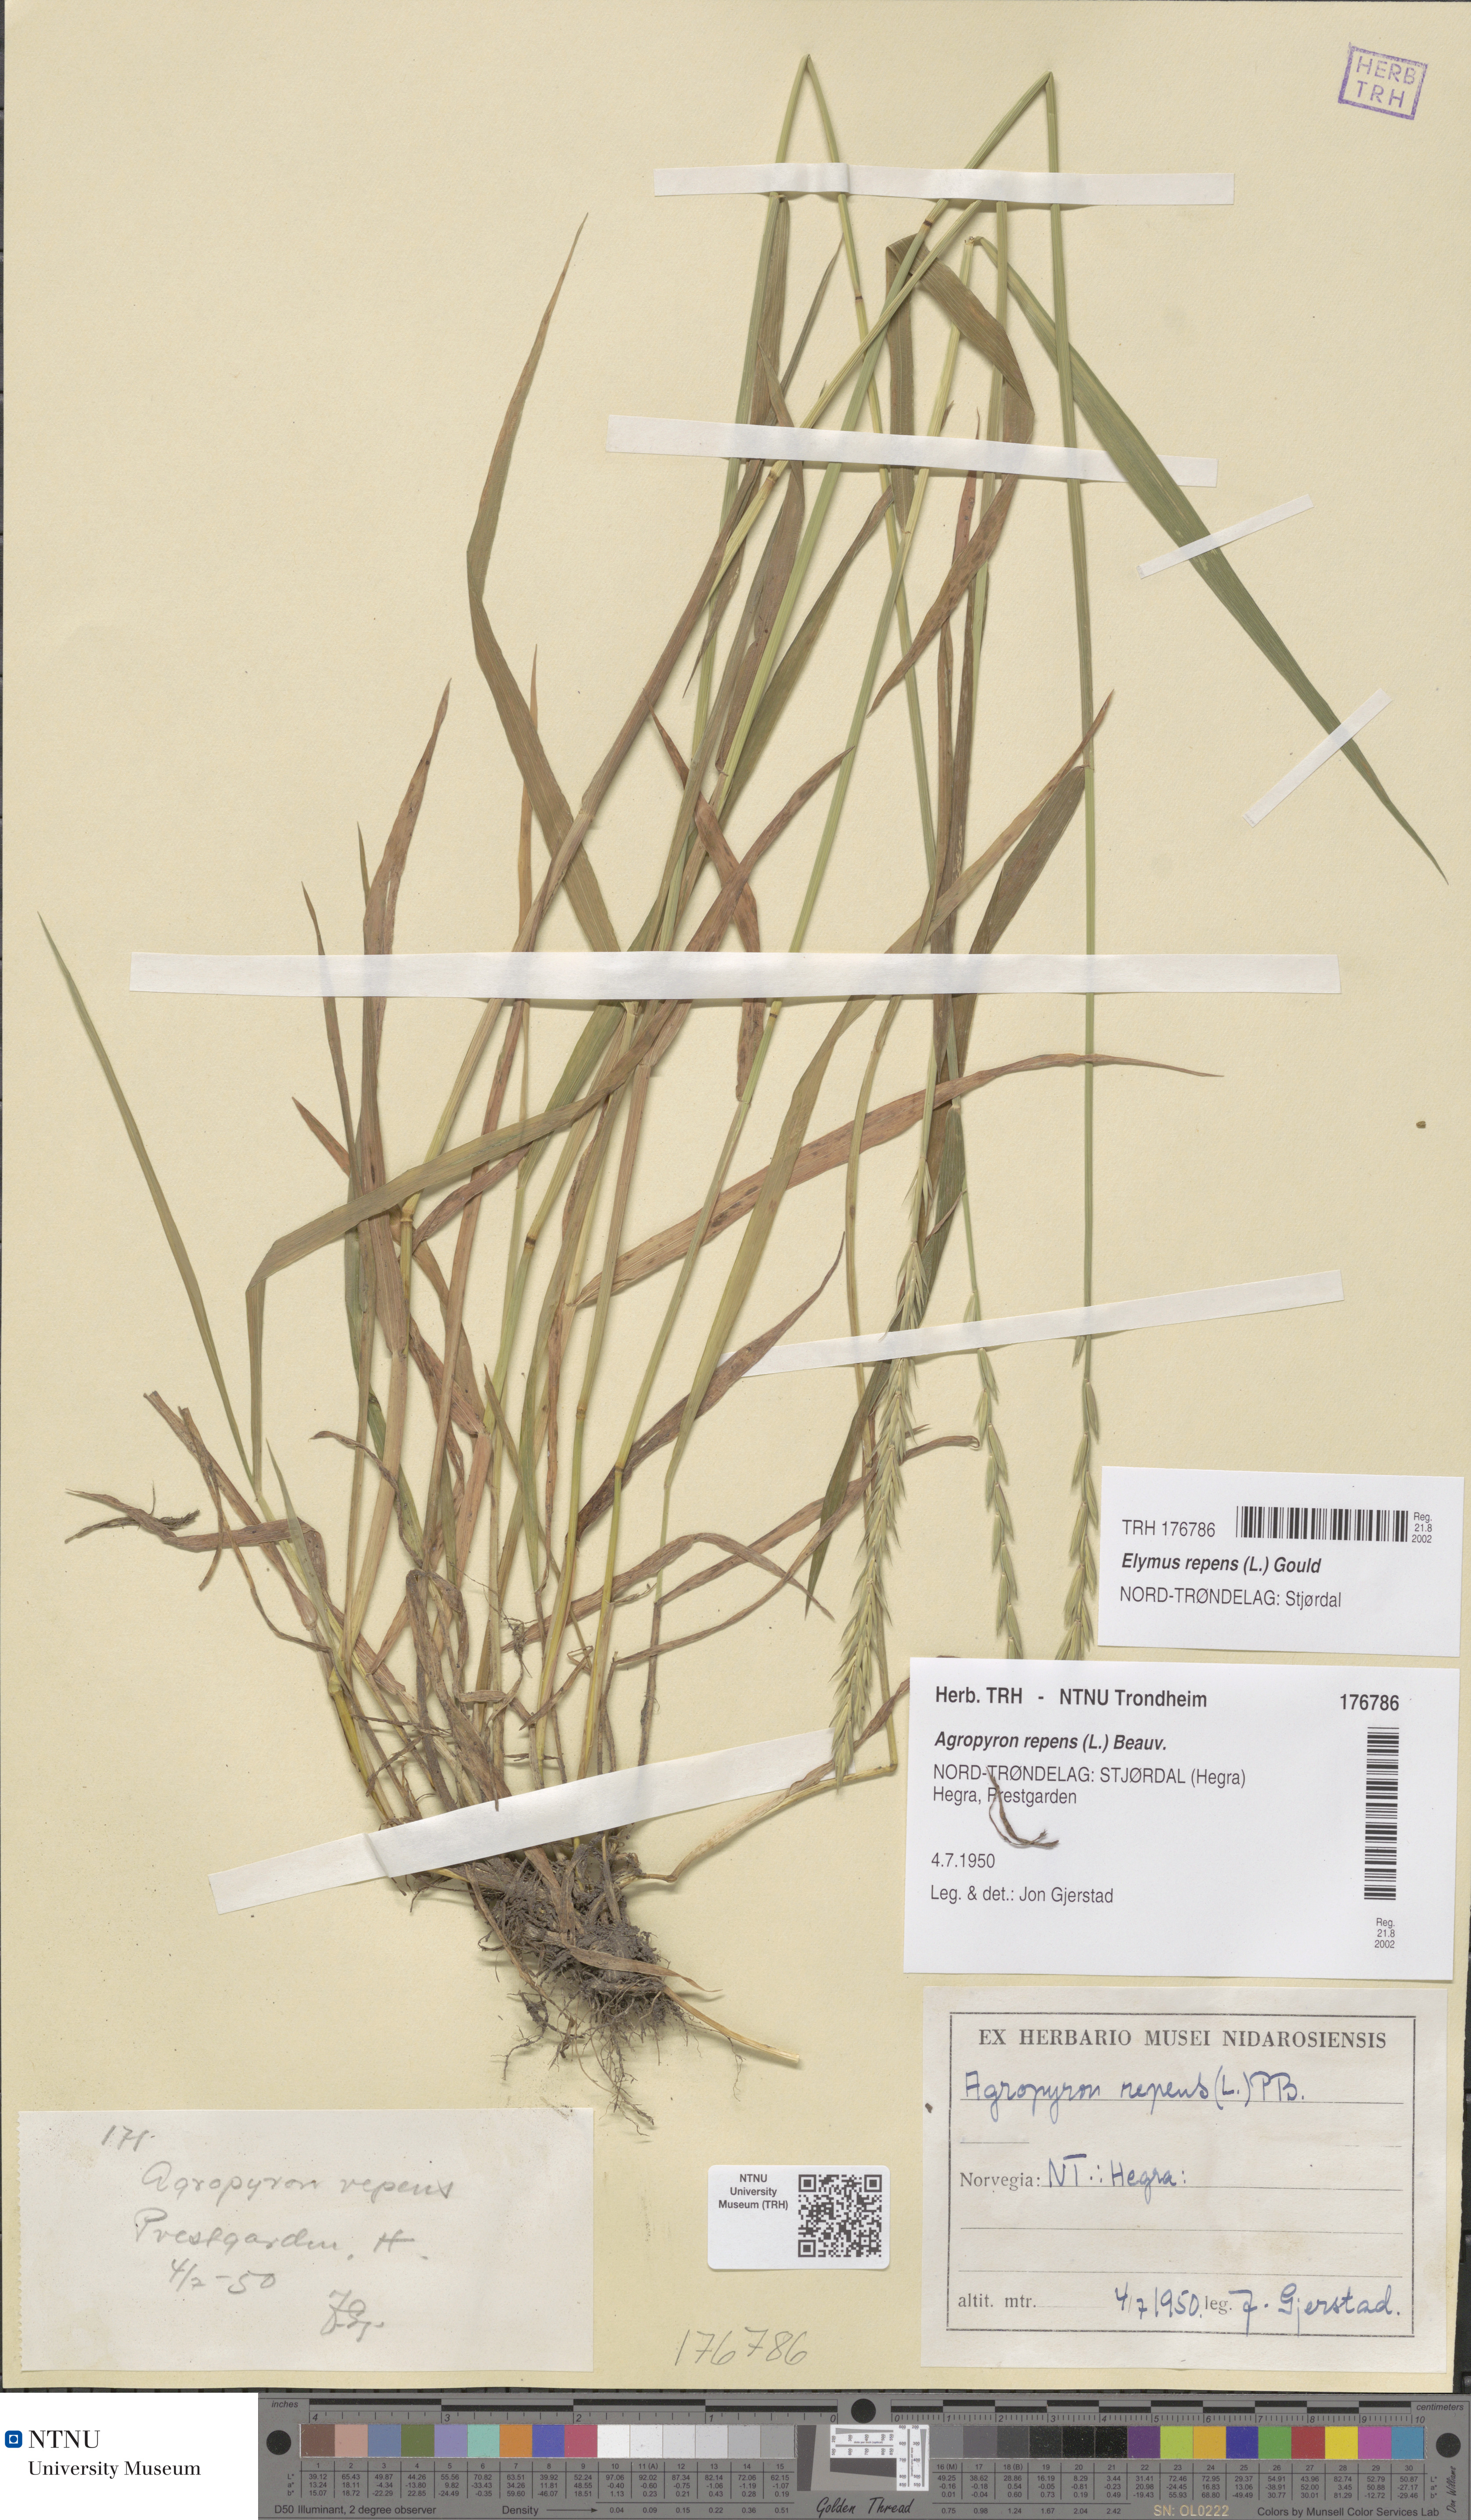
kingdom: Plantae
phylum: Tracheophyta
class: Liliopsida
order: Poales
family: Poaceae
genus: Elymus
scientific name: Elymus repens
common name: Quackgrass
